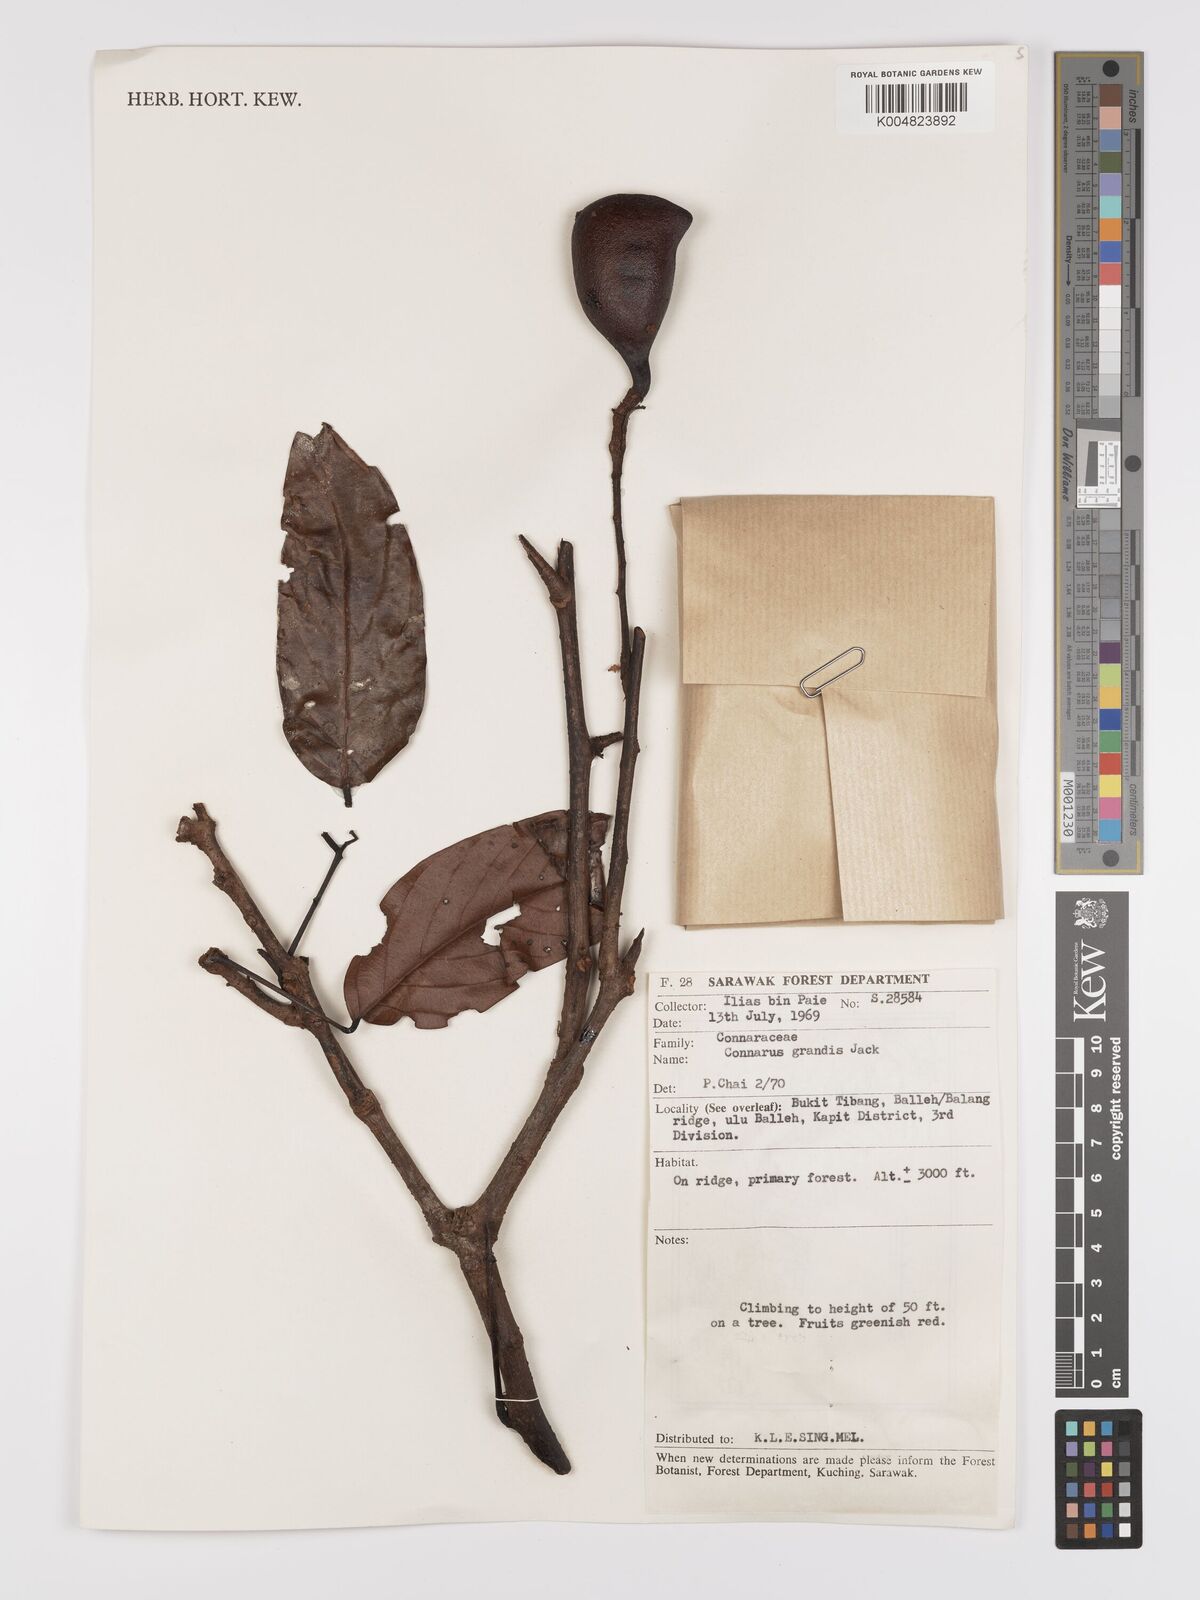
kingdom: Plantae
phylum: Tracheophyta
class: Magnoliopsida
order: Oxalidales
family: Connaraceae
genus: Connarus
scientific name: Connarus grandis
